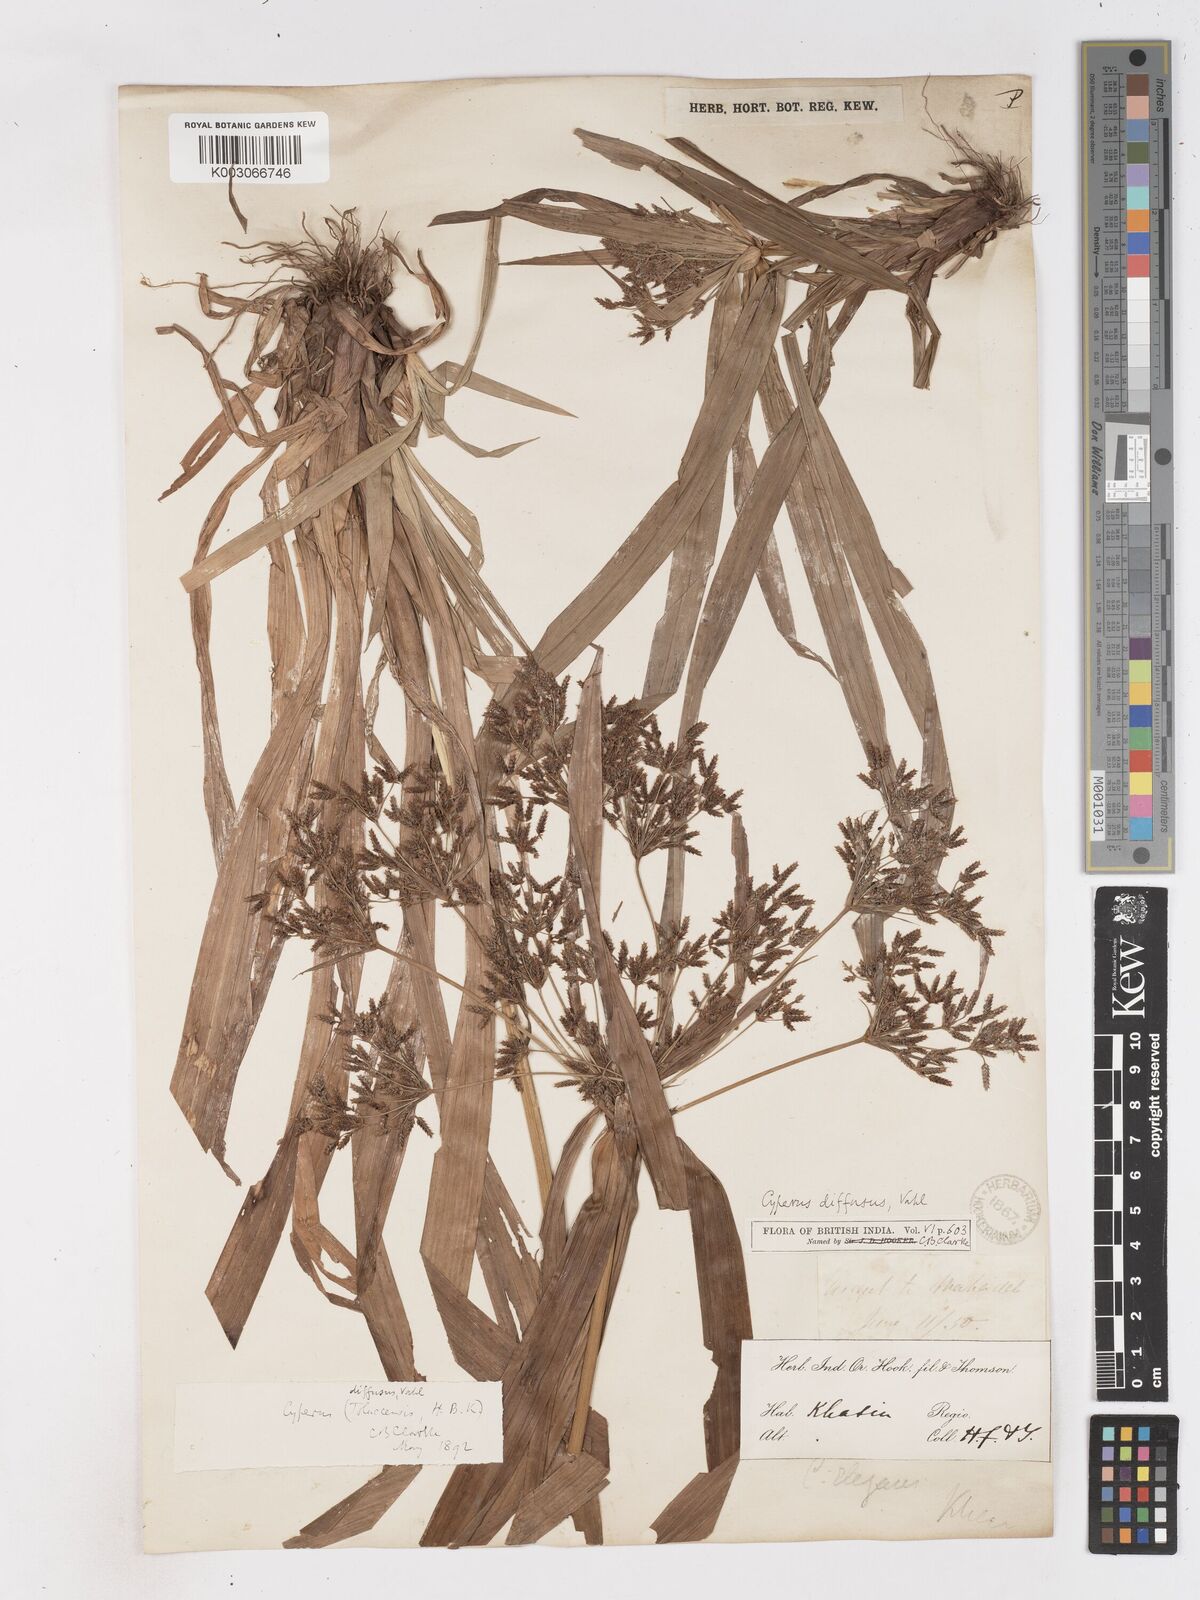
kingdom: Plantae
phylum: Tracheophyta
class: Liliopsida
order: Poales
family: Cyperaceae
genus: Cyperus
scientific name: Cyperus diffusus
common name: Dwarf umbrella grass
